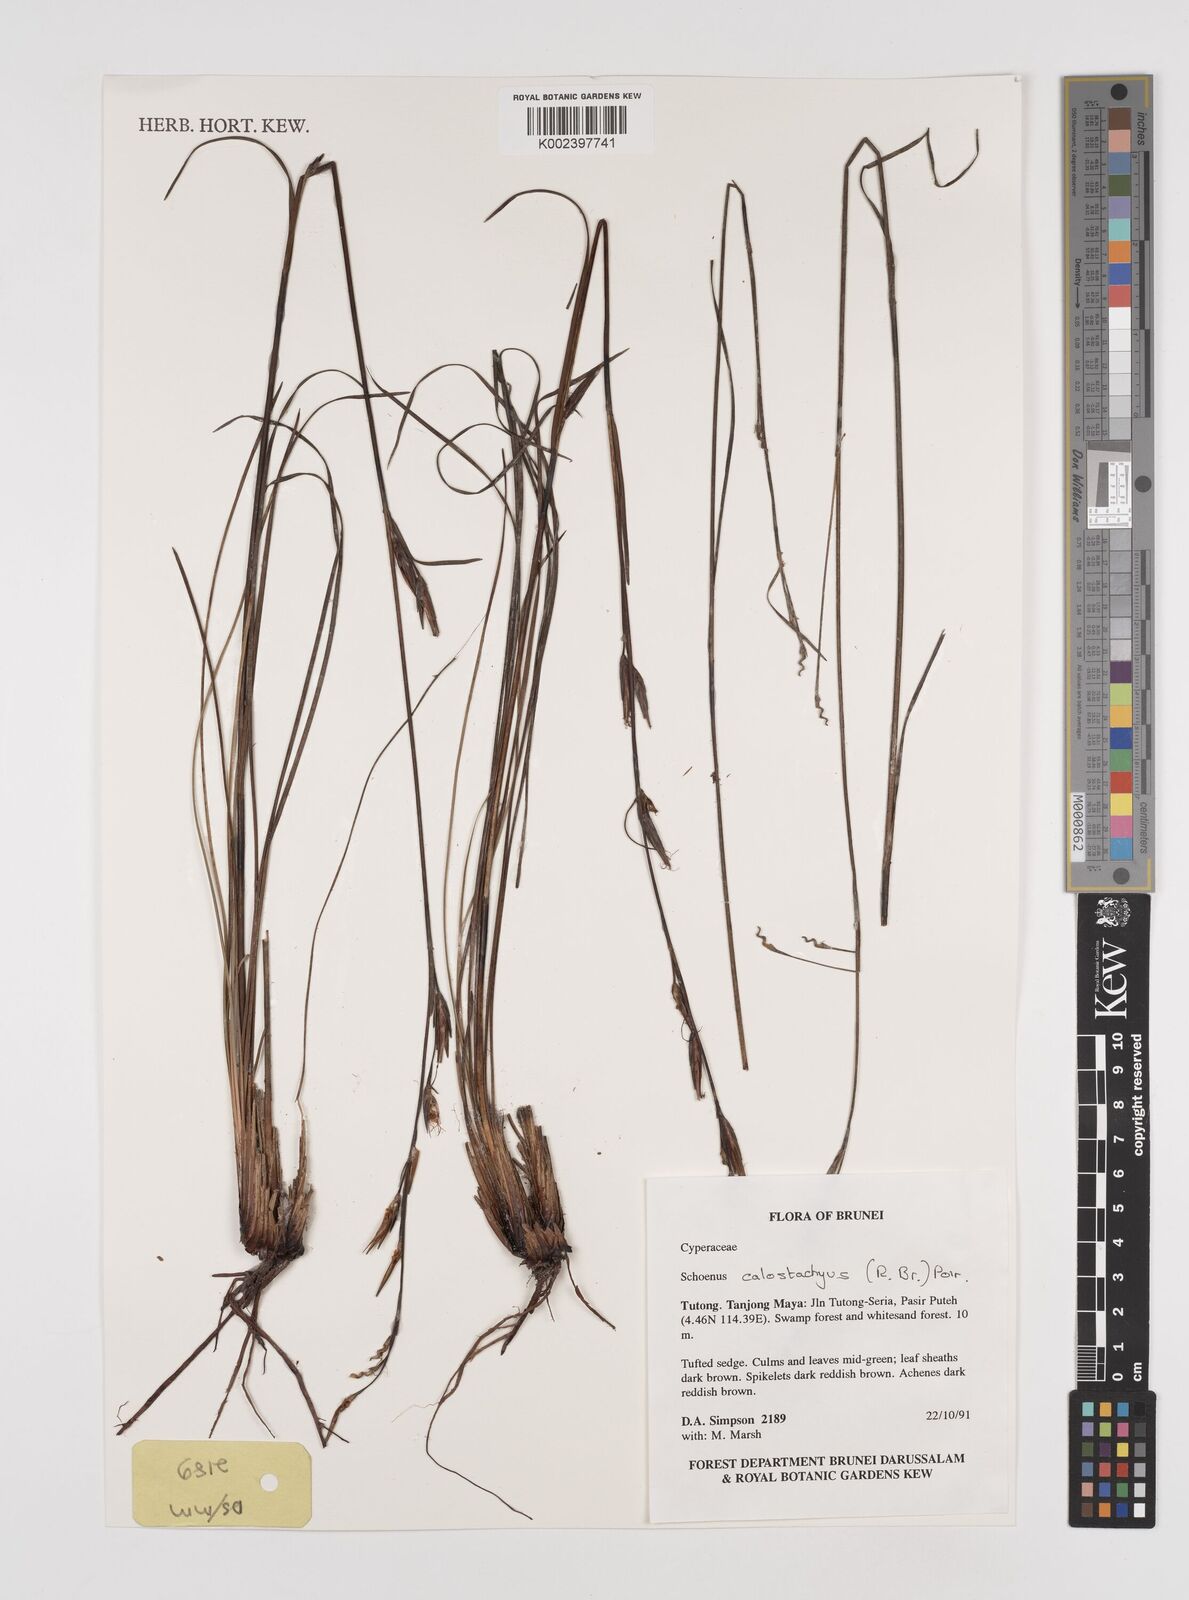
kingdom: Plantae
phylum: Tracheophyta
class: Liliopsida
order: Poales
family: Cyperaceae
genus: Schoenus
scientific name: Schoenus calostachyus
